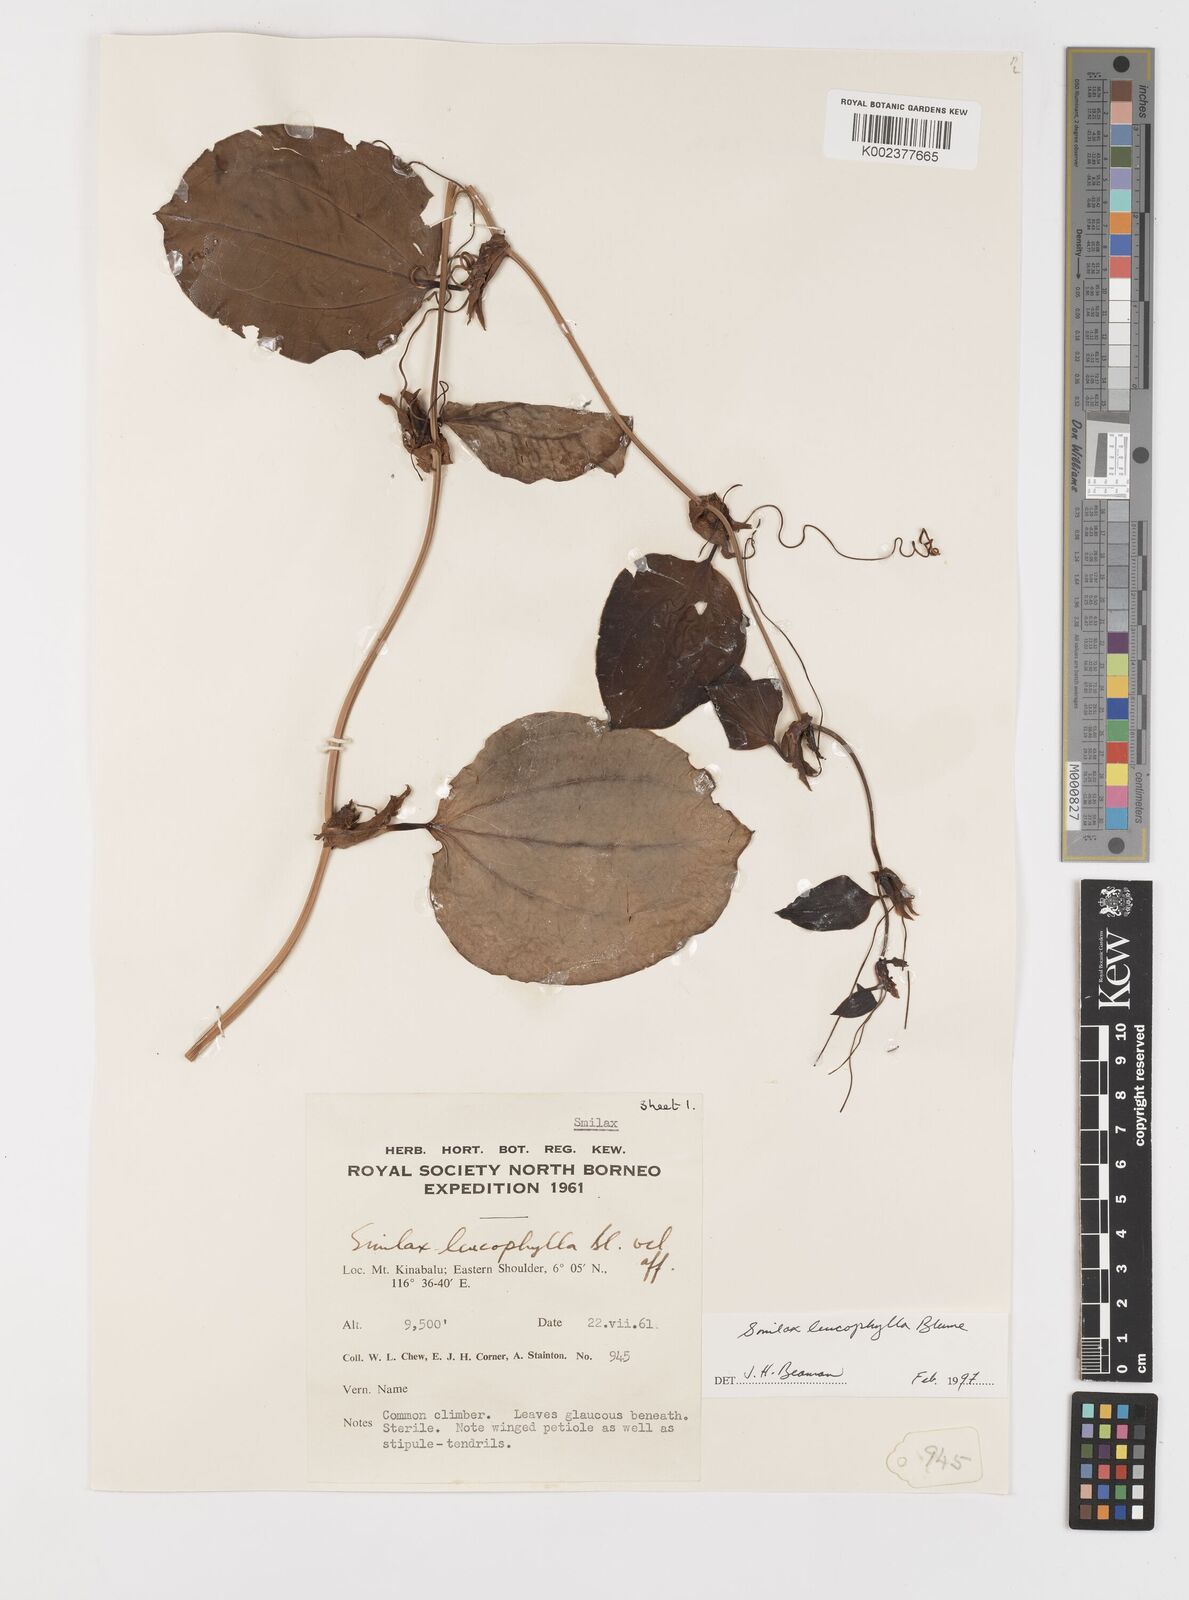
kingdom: Plantae
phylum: Tracheophyta
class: Liliopsida
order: Liliales
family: Smilacaceae
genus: Smilax
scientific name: Smilax leucophylla
